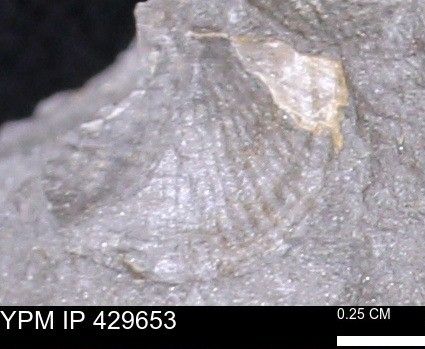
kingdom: Animalia
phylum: Brachiopoda
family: Chonetidae
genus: Devonochonetes
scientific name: Devonochonetes
